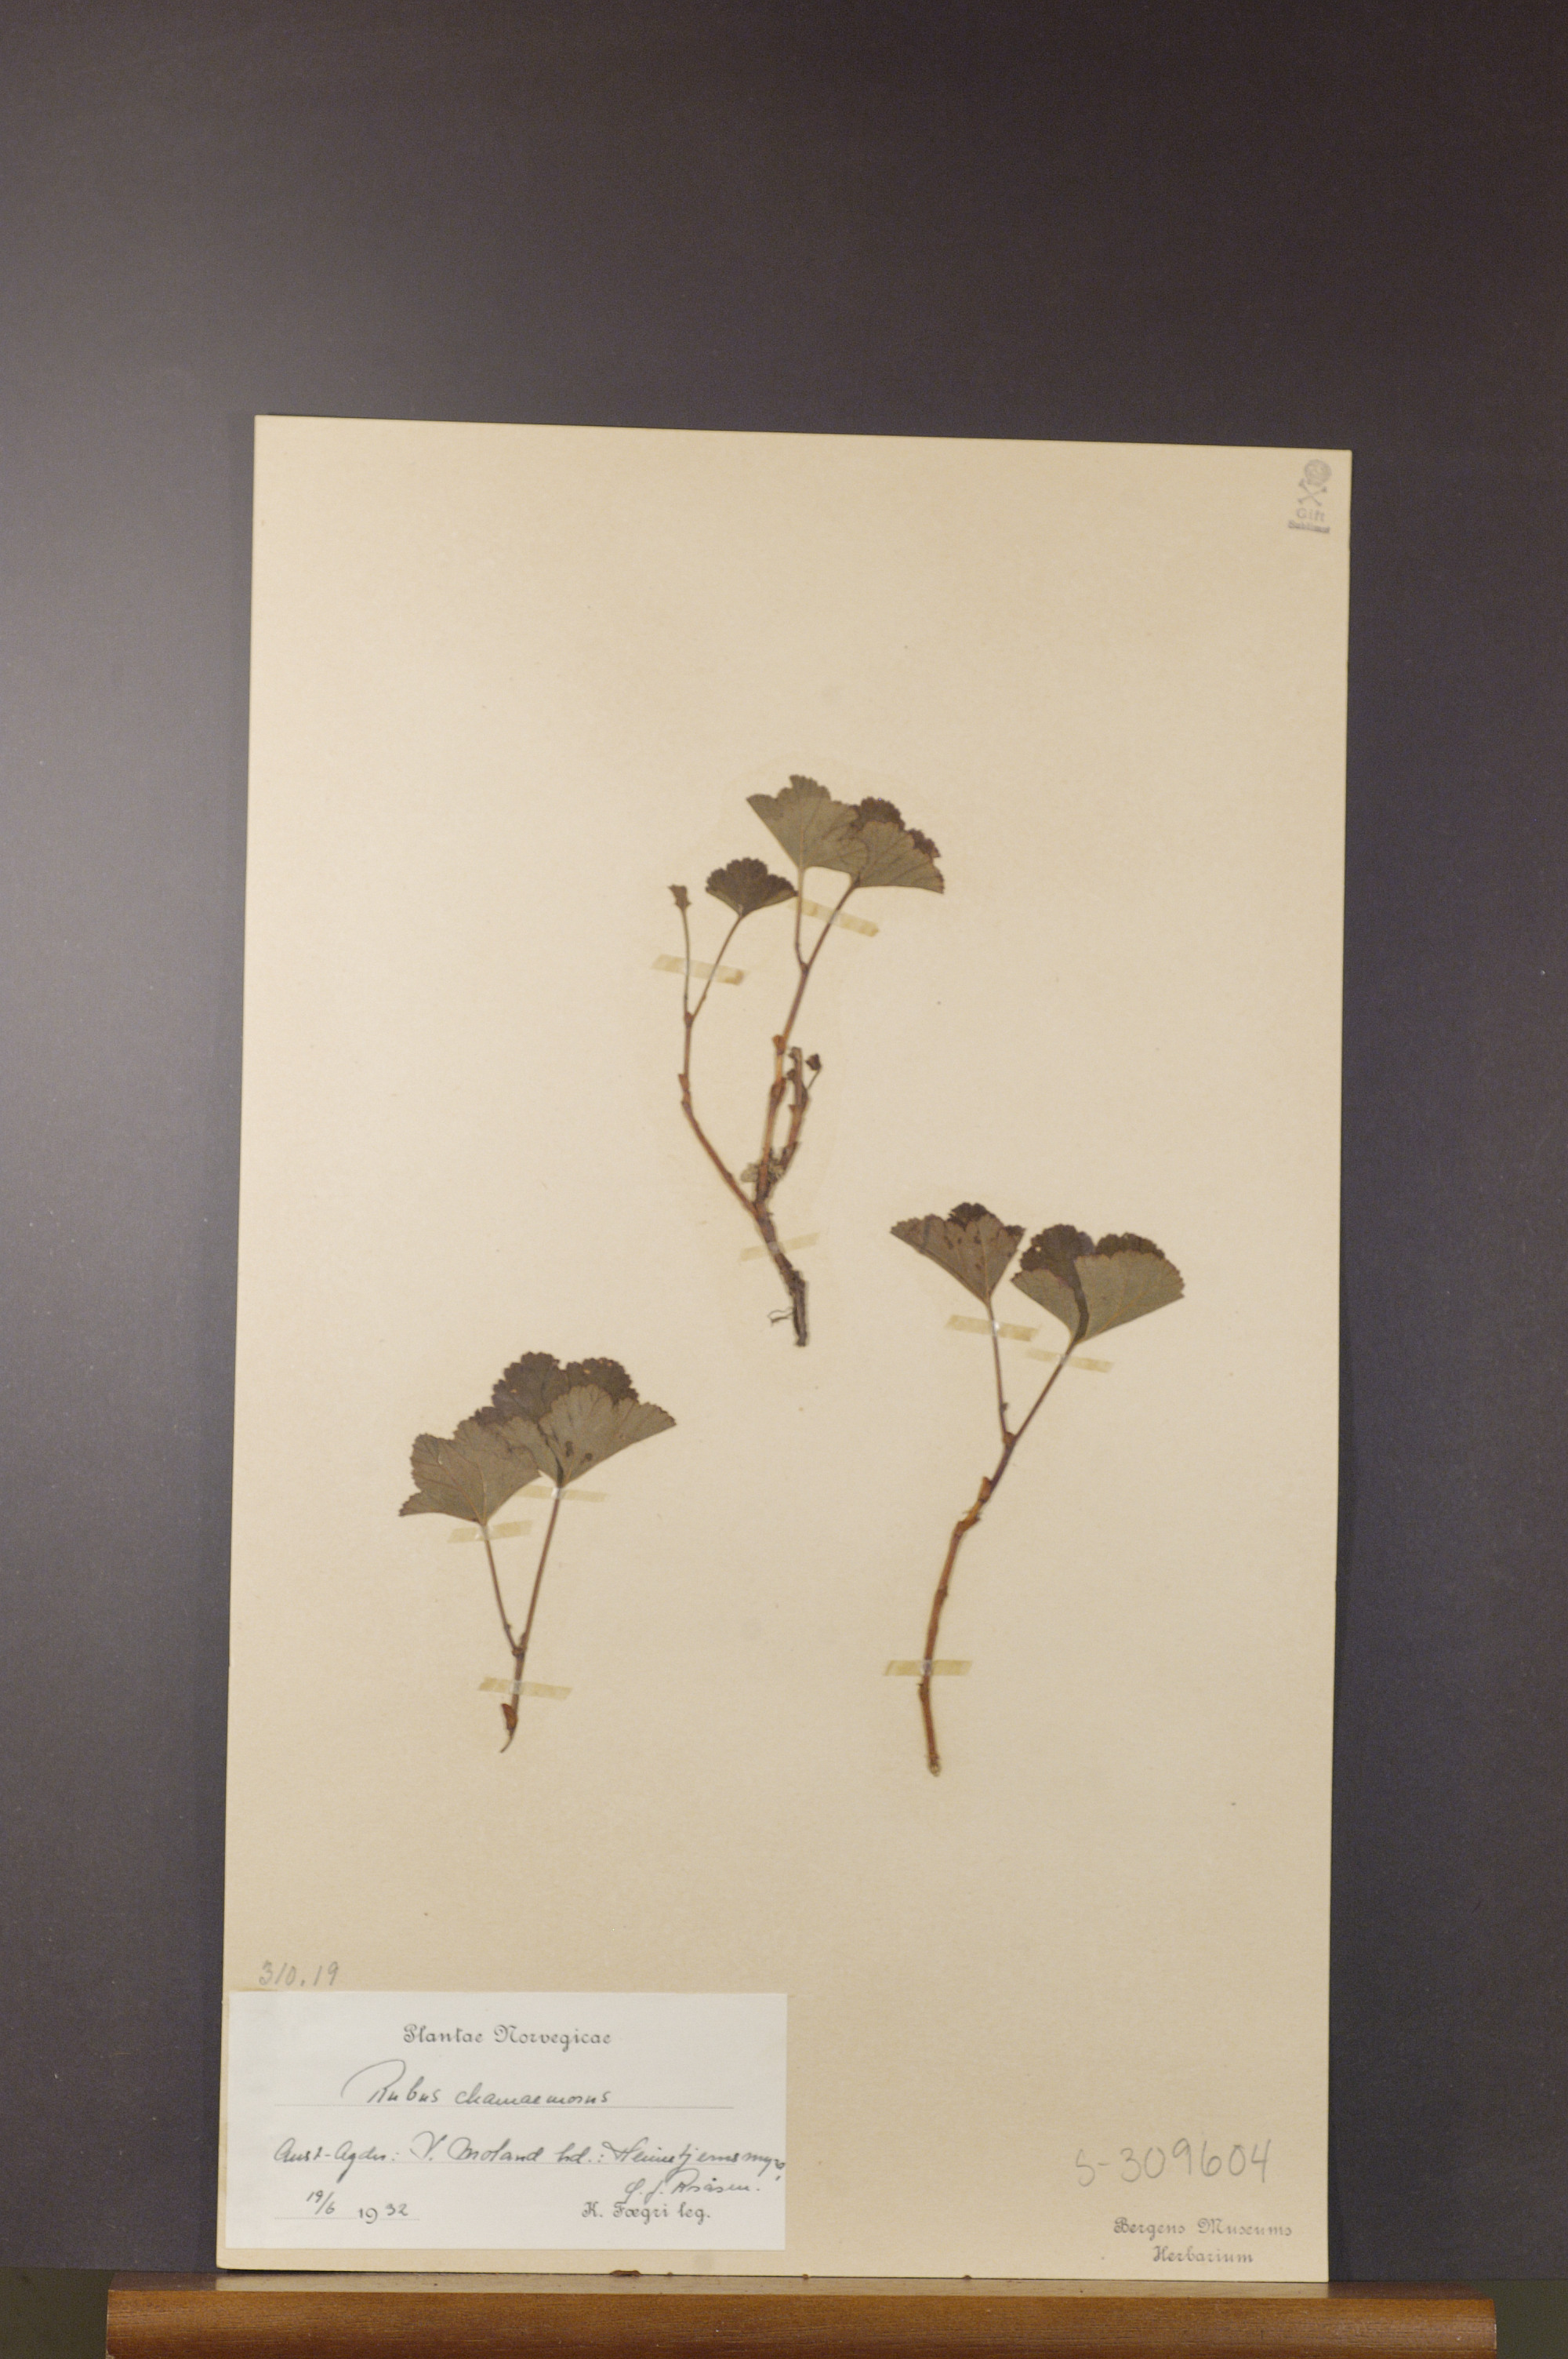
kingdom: Plantae
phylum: Tracheophyta
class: Magnoliopsida
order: Rosales
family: Rosaceae
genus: Rubus
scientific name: Rubus chamaemorus
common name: Cloudberry
